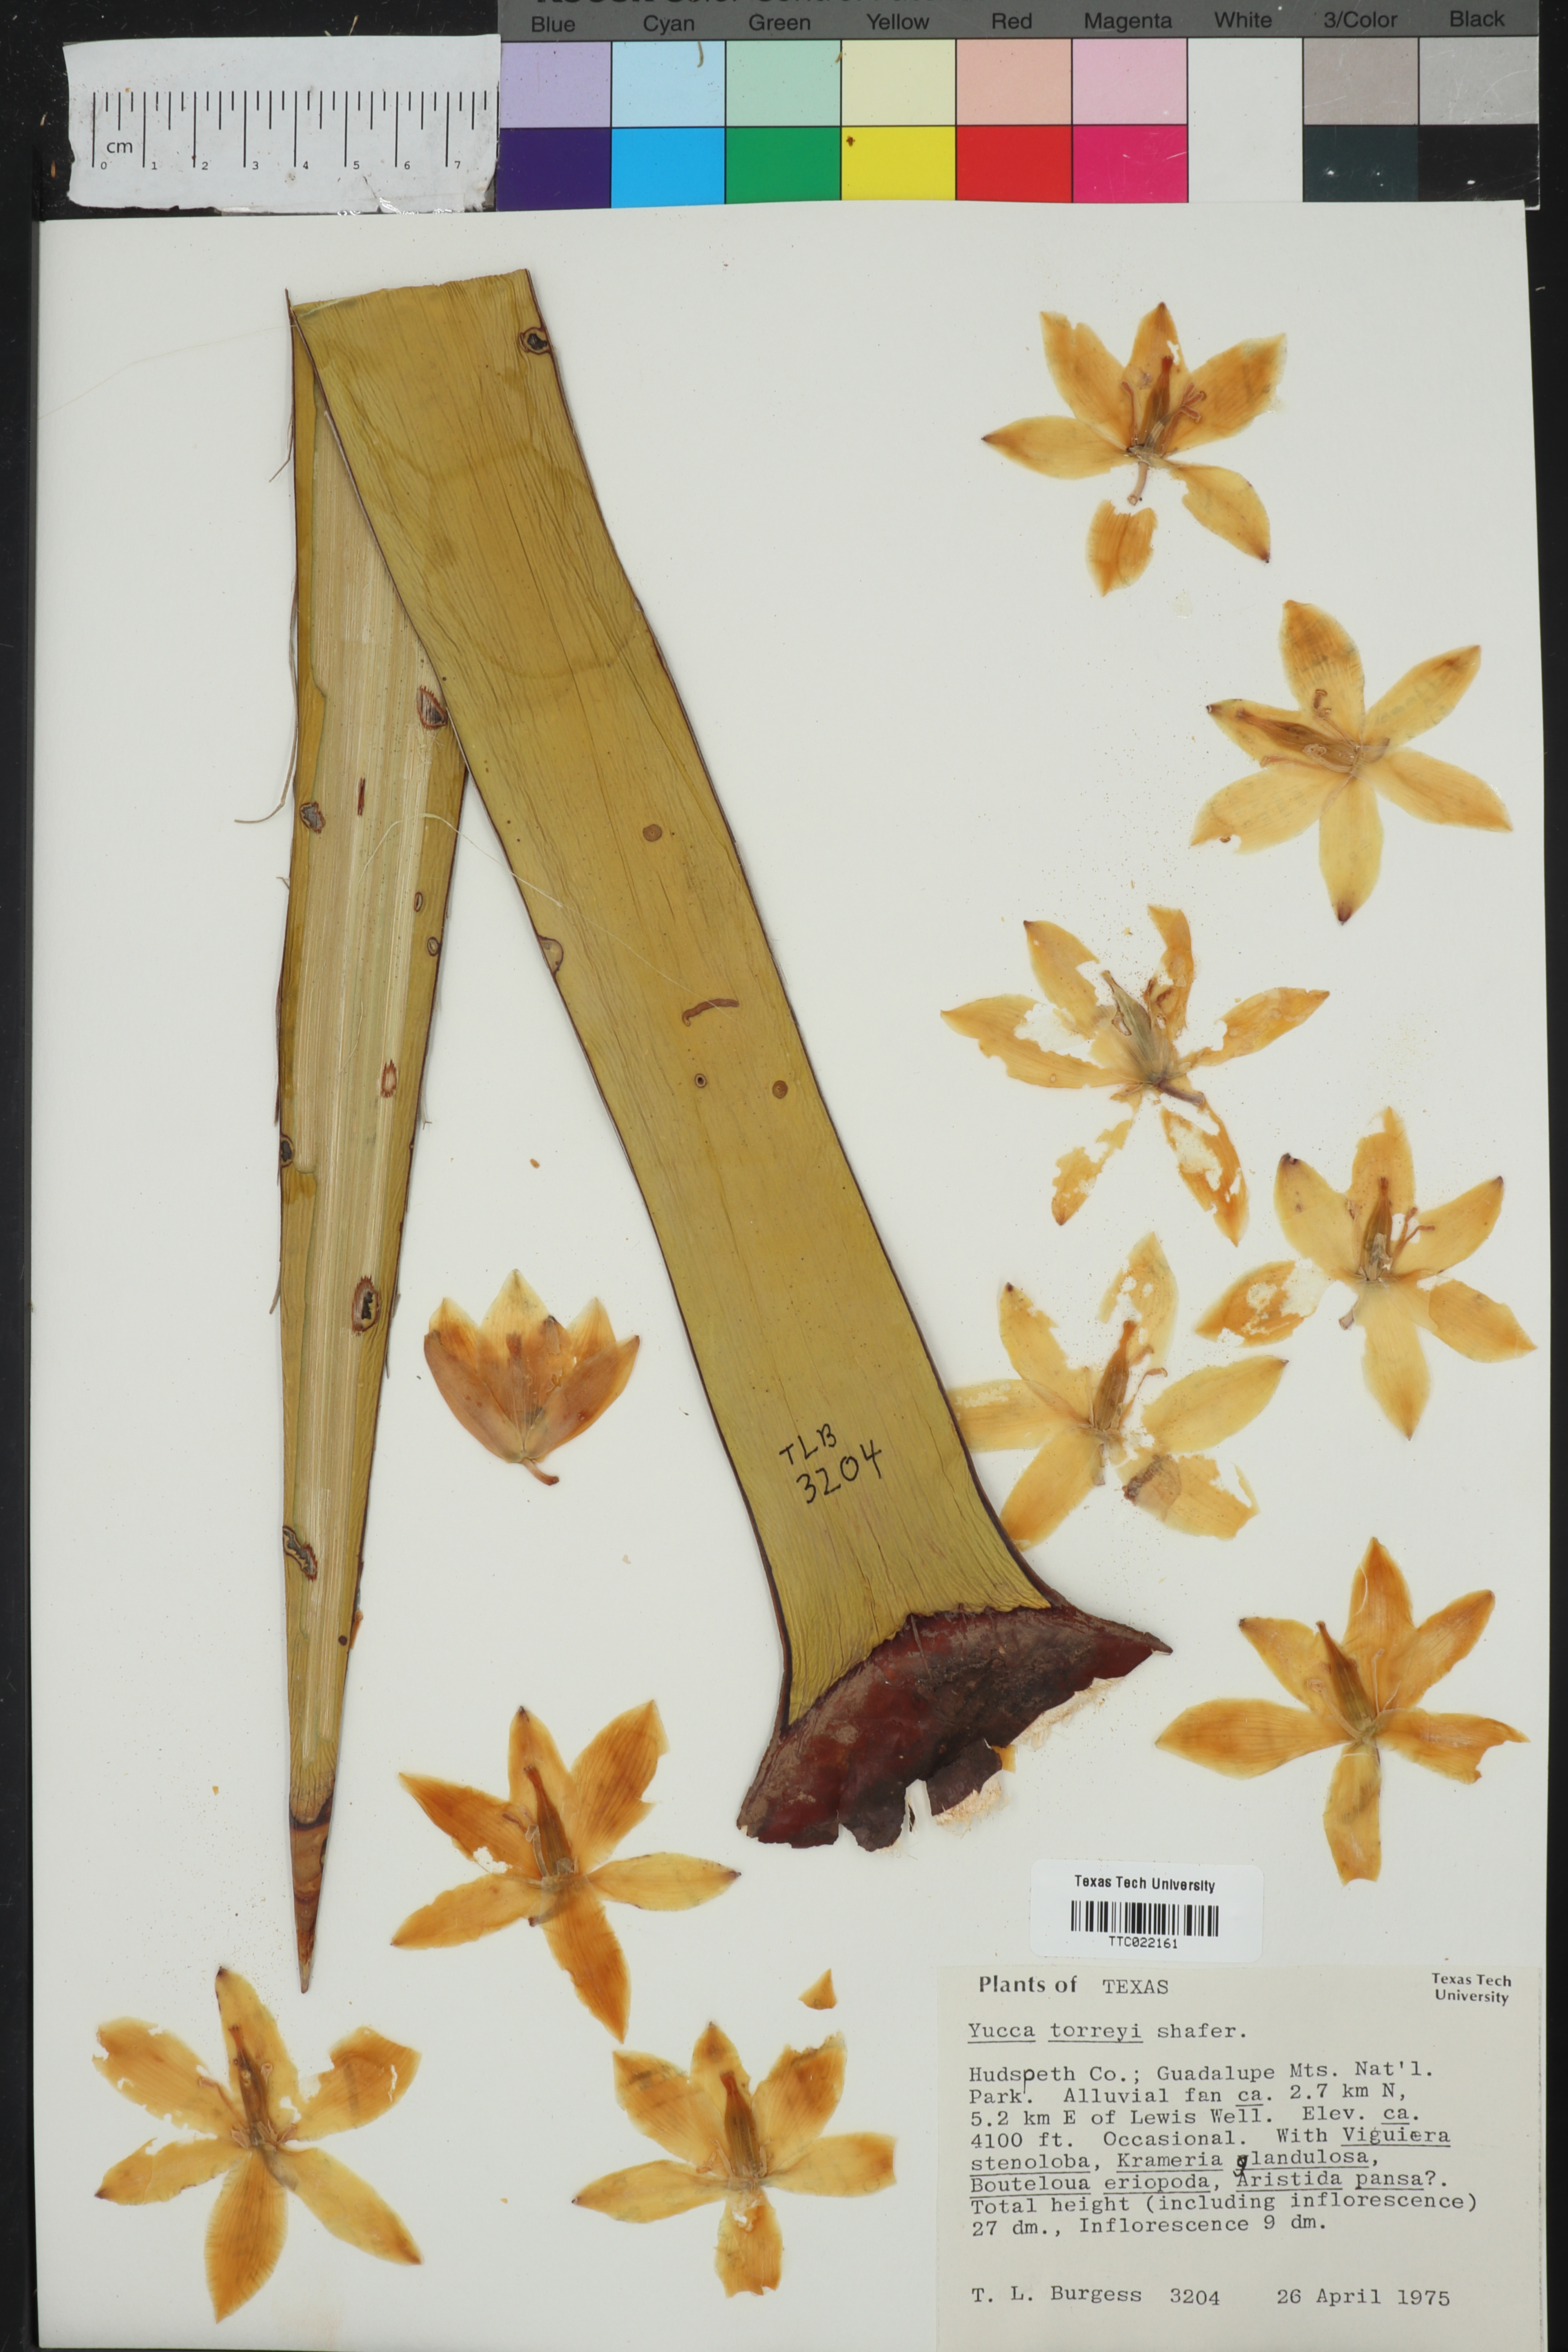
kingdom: Plantae
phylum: Tracheophyta
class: Liliopsida
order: Asparagales
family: Asparagaceae
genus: Yucca
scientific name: Yucca treculiana
